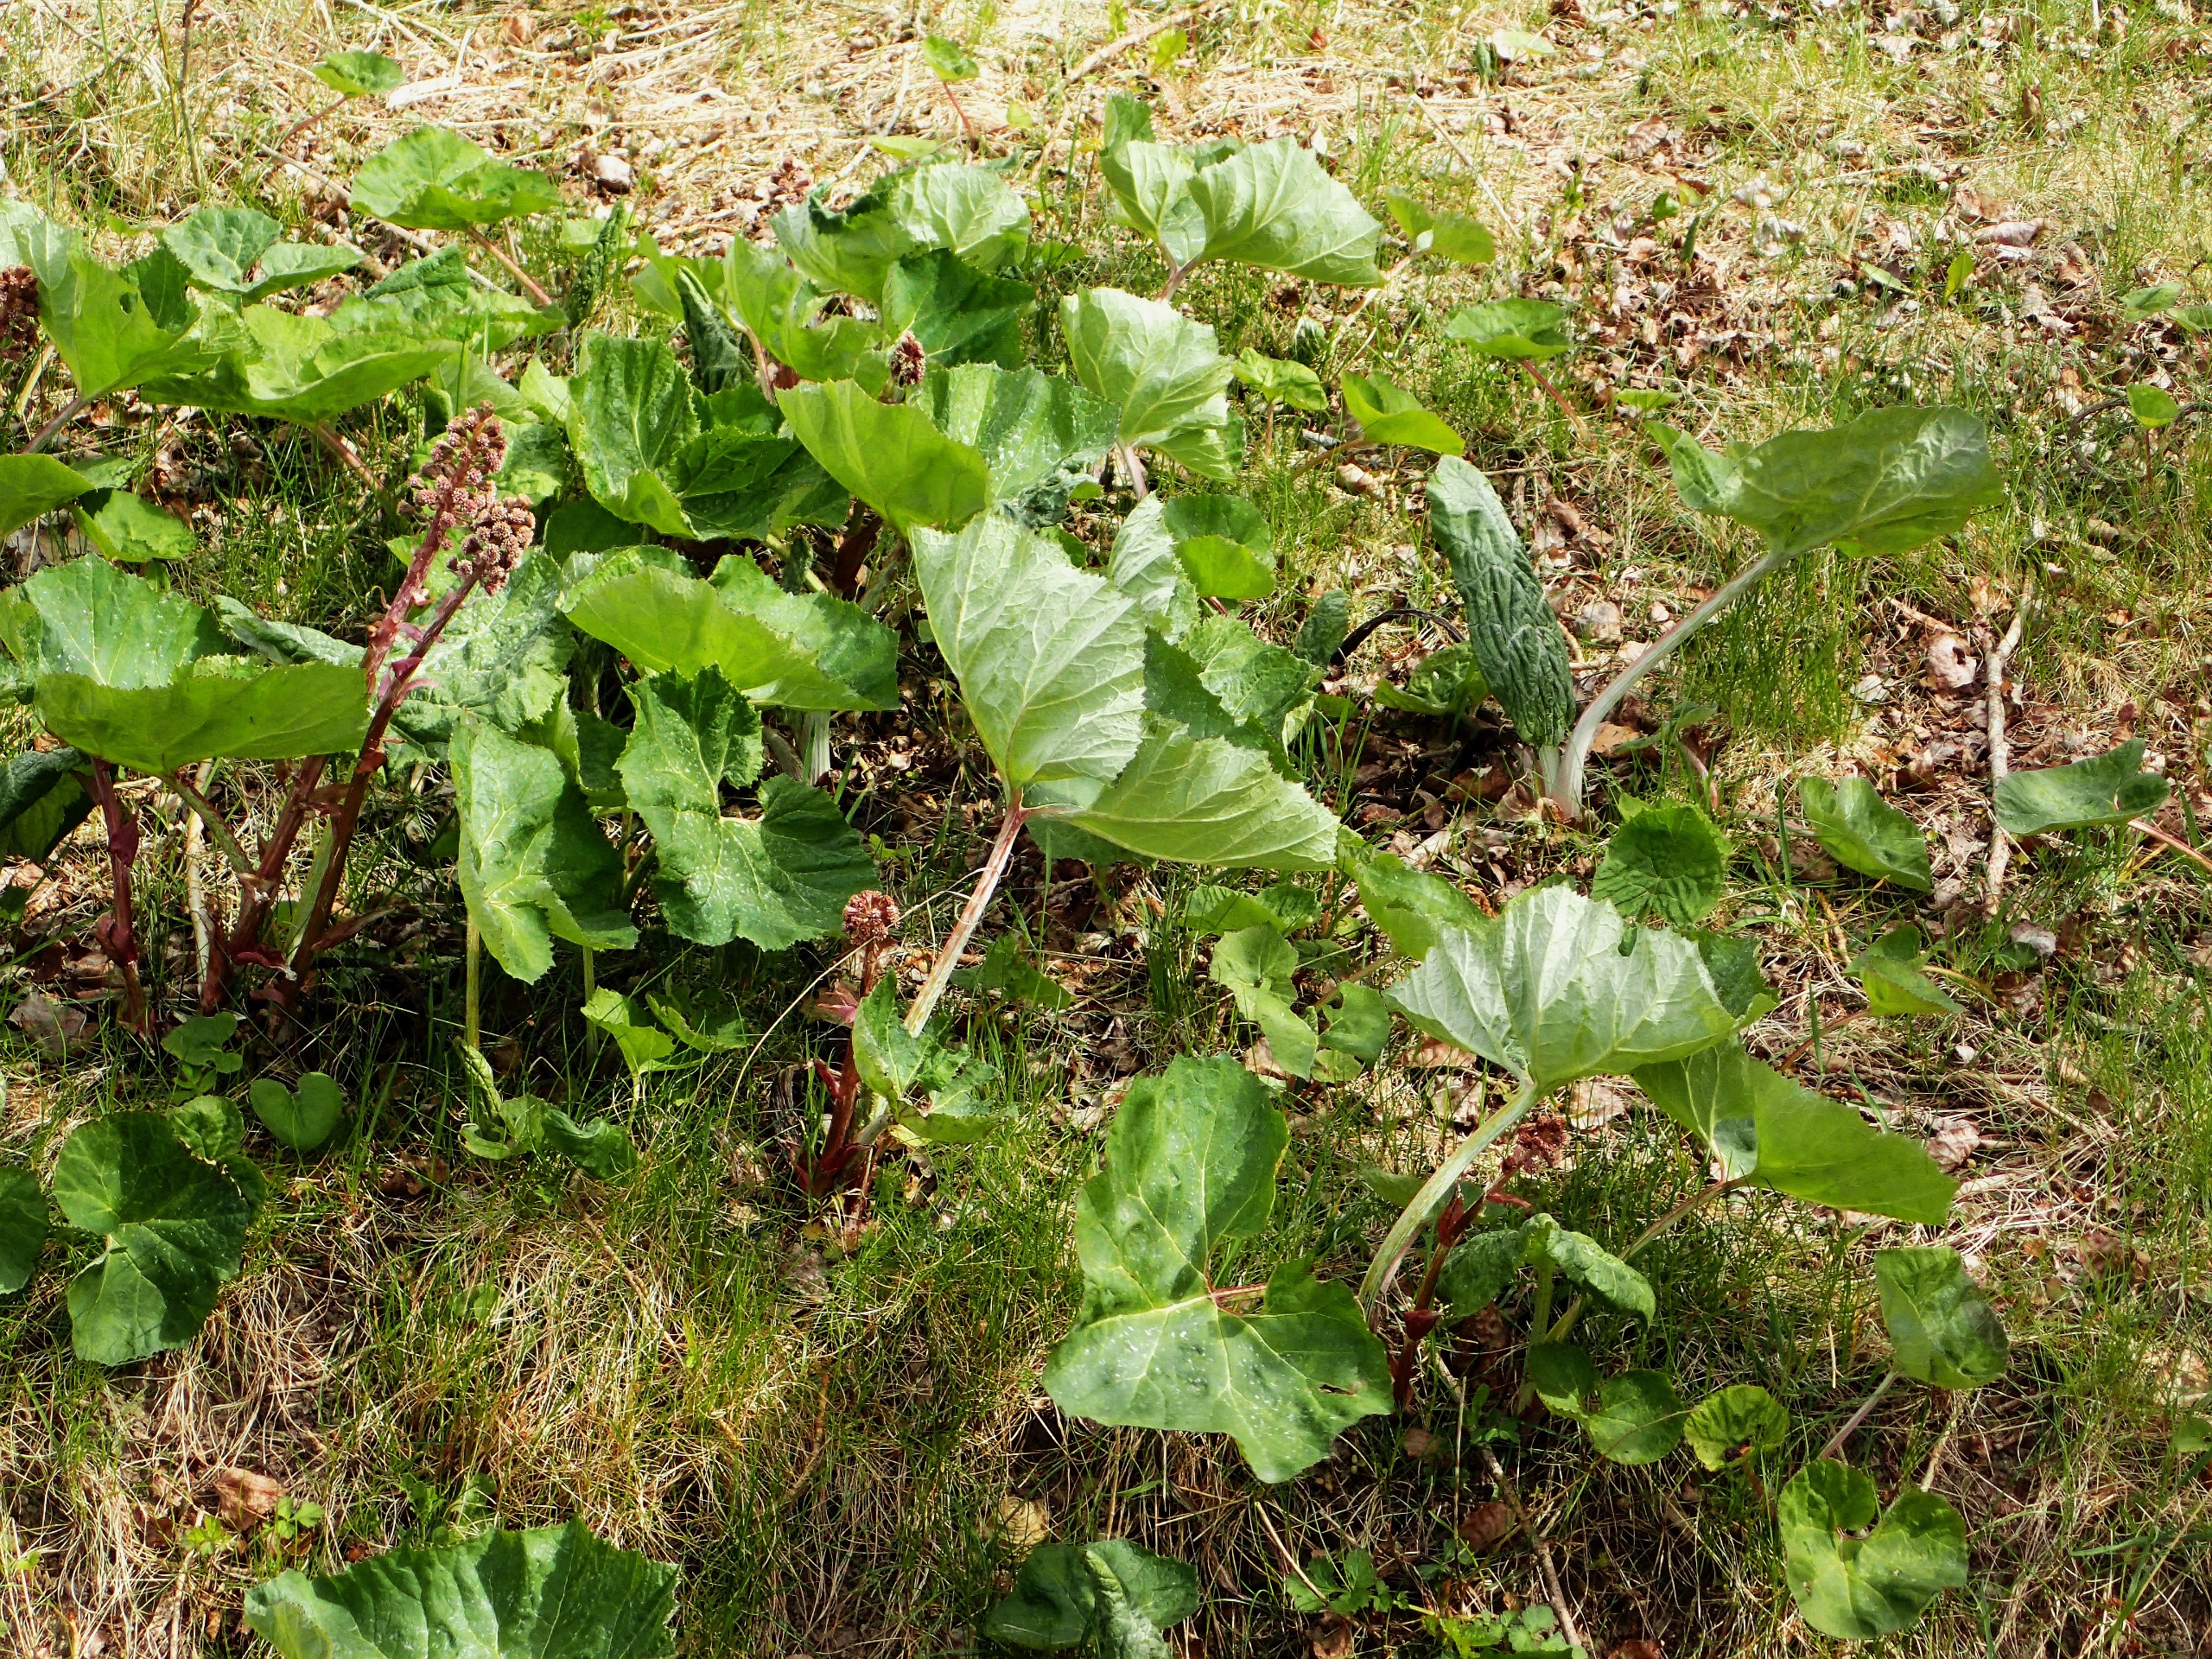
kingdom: Plantae
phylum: Tracheophyta
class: Magnoliopsida
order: Asterales
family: Asteraceae
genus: Petasites
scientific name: Petasites hybridus
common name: Rød hestehov
